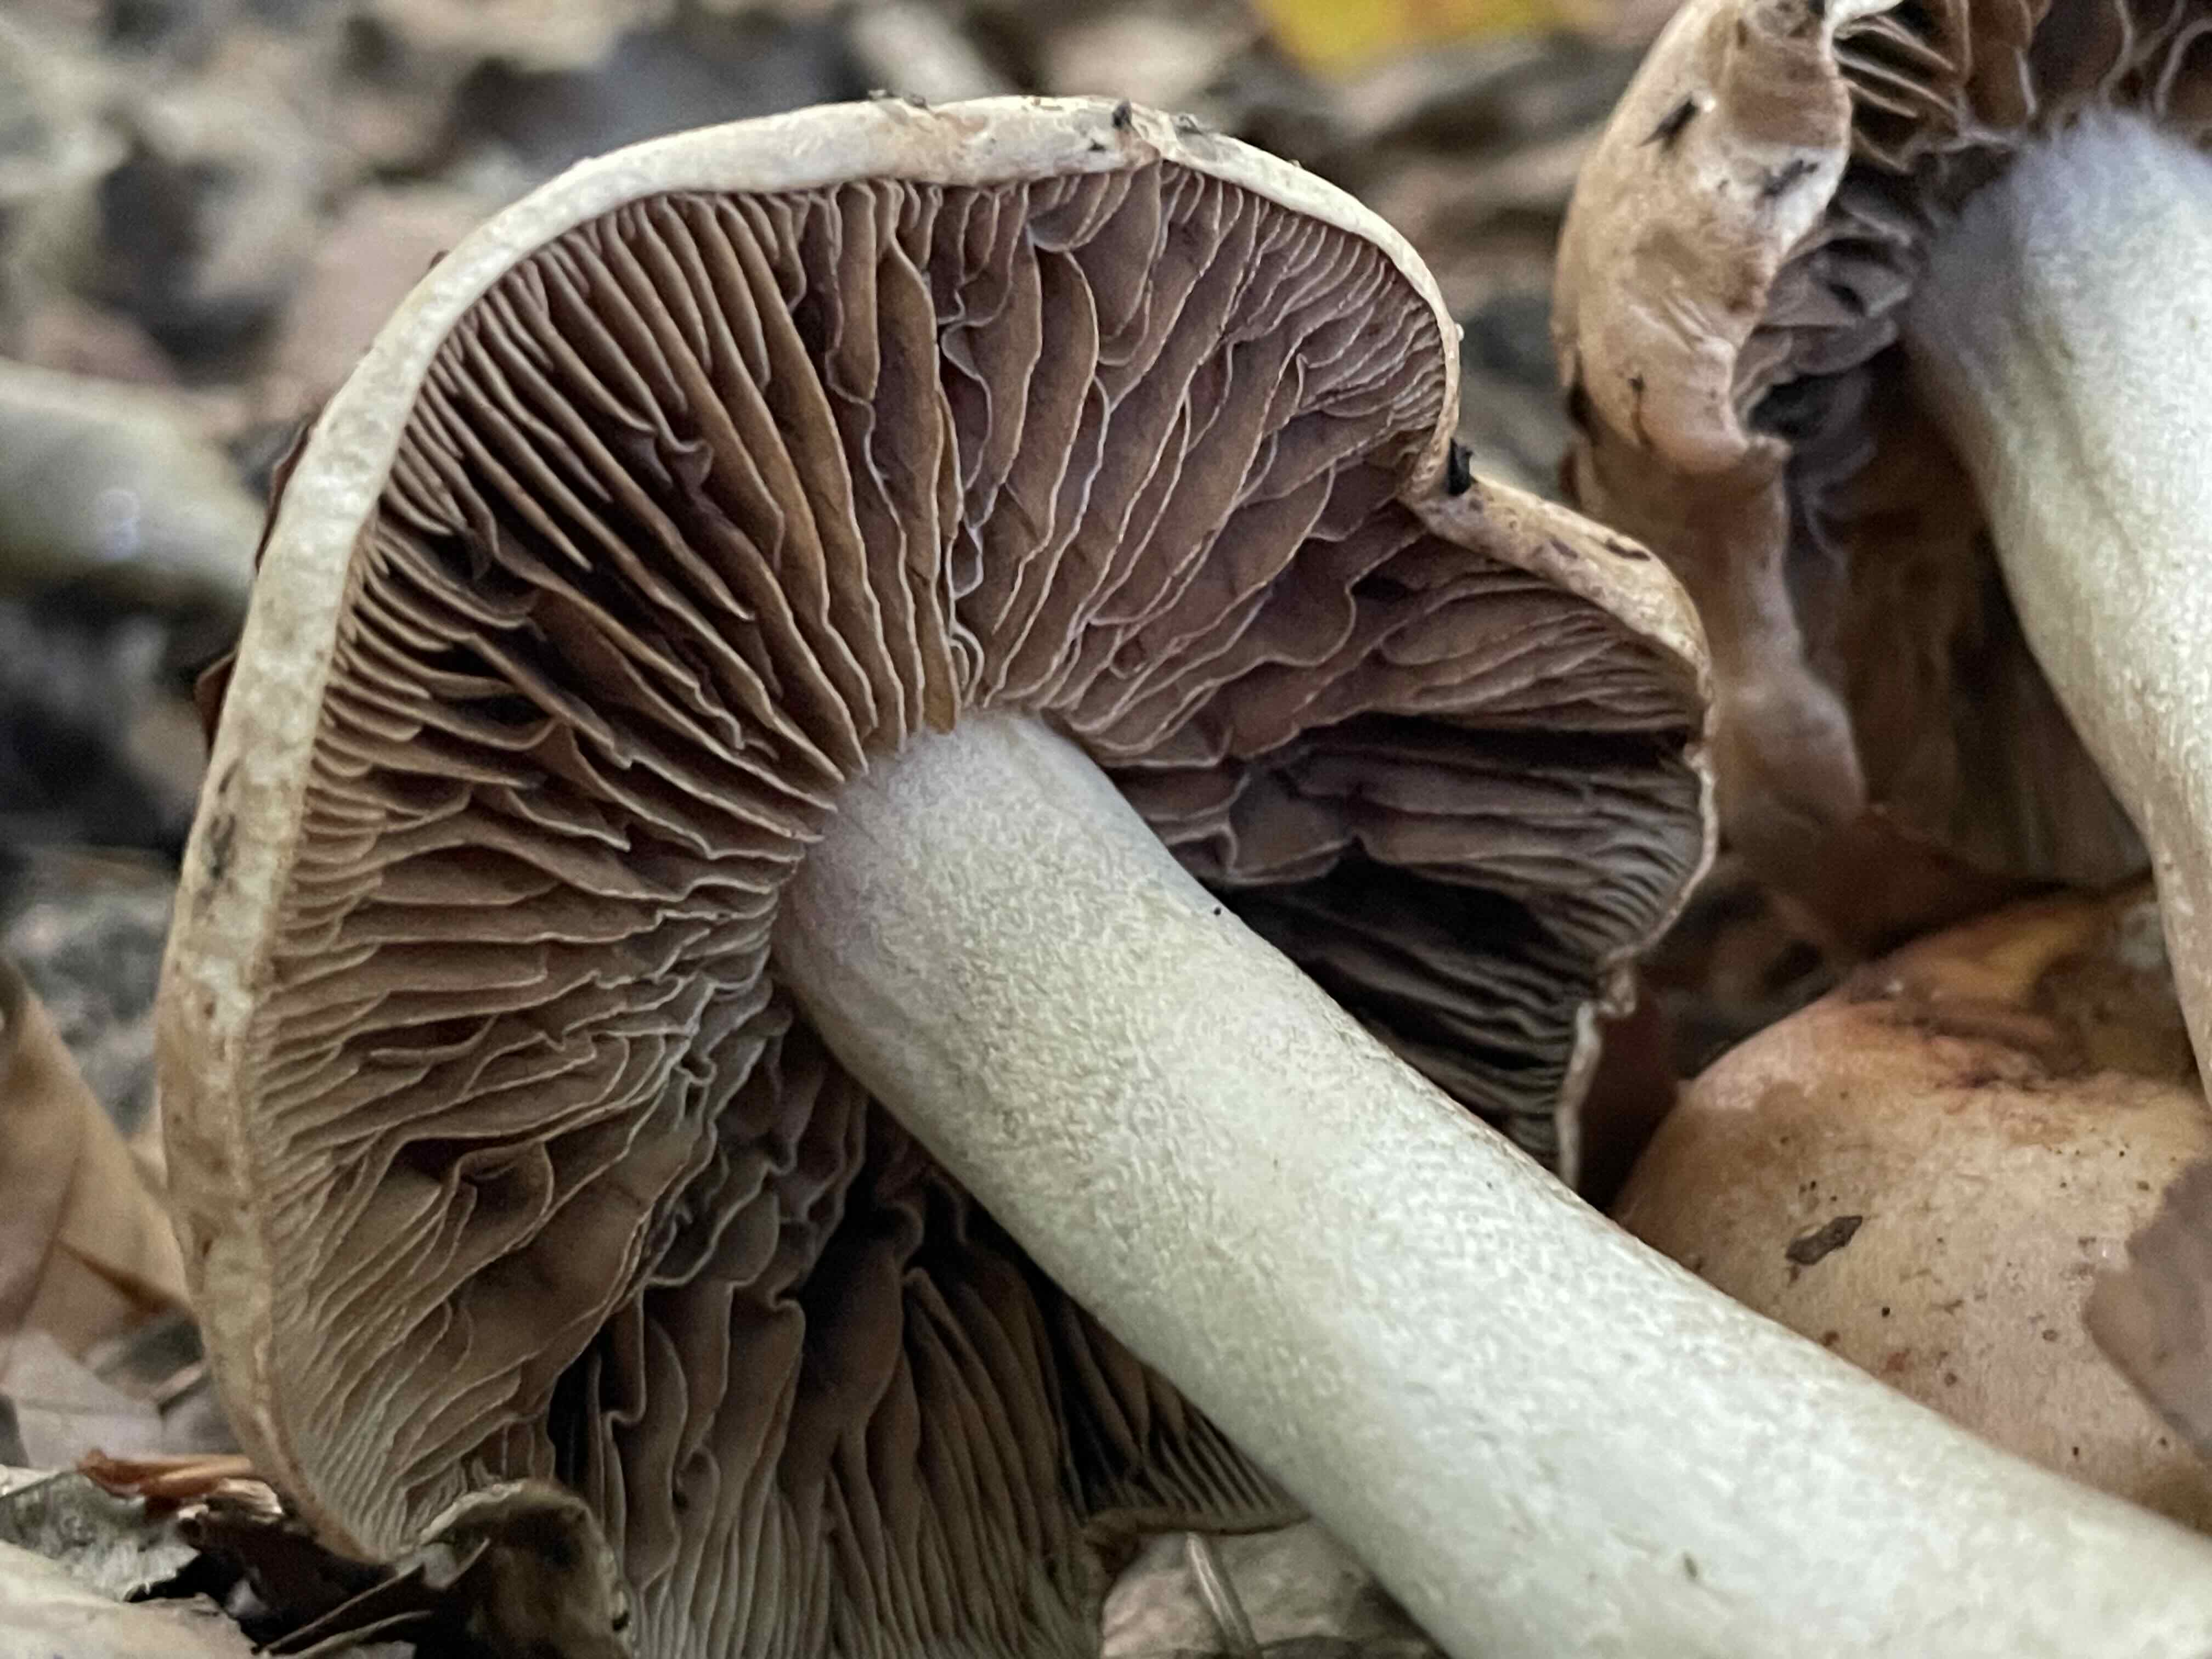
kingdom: Fungi
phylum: Basidiomycota
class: Agaricomycetes
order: Agaricales
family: Hymenogastraceae
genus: Hebeloma
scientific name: Hebeloma sinapizans
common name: ræddike-tåreblad
